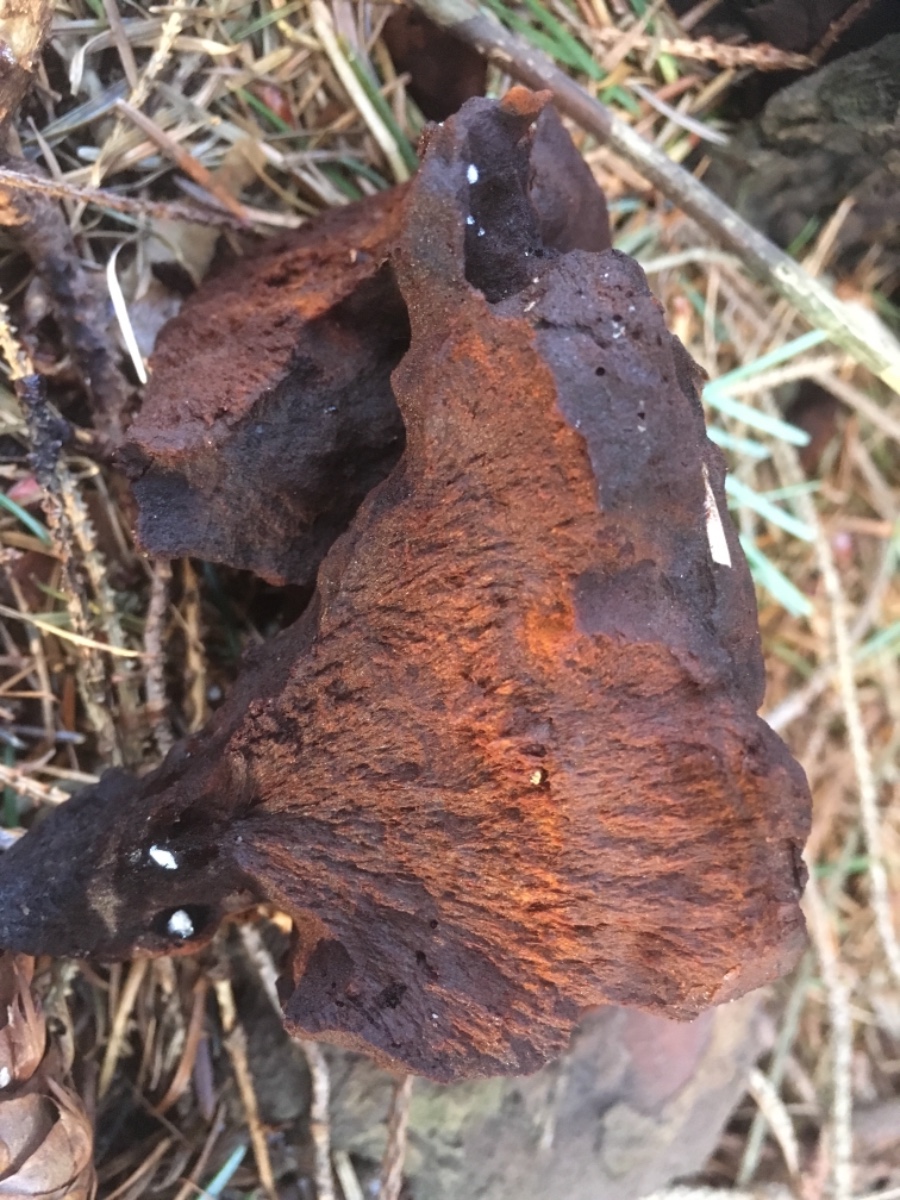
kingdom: Fungi
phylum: Basidiomycota
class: Agaricomycetes
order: Polyporales
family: Laetiporaceae
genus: Phaeolus
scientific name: Phaeolus schweinitzii
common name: brunporesvamp
